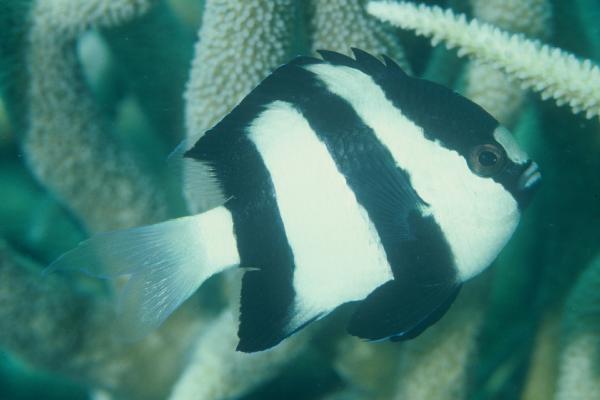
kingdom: Animalia
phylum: Chordata
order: Perciformes
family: Pomacentridae
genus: Dascyllus
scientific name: Dascyllus aruanus
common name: Humbug dascyllus
